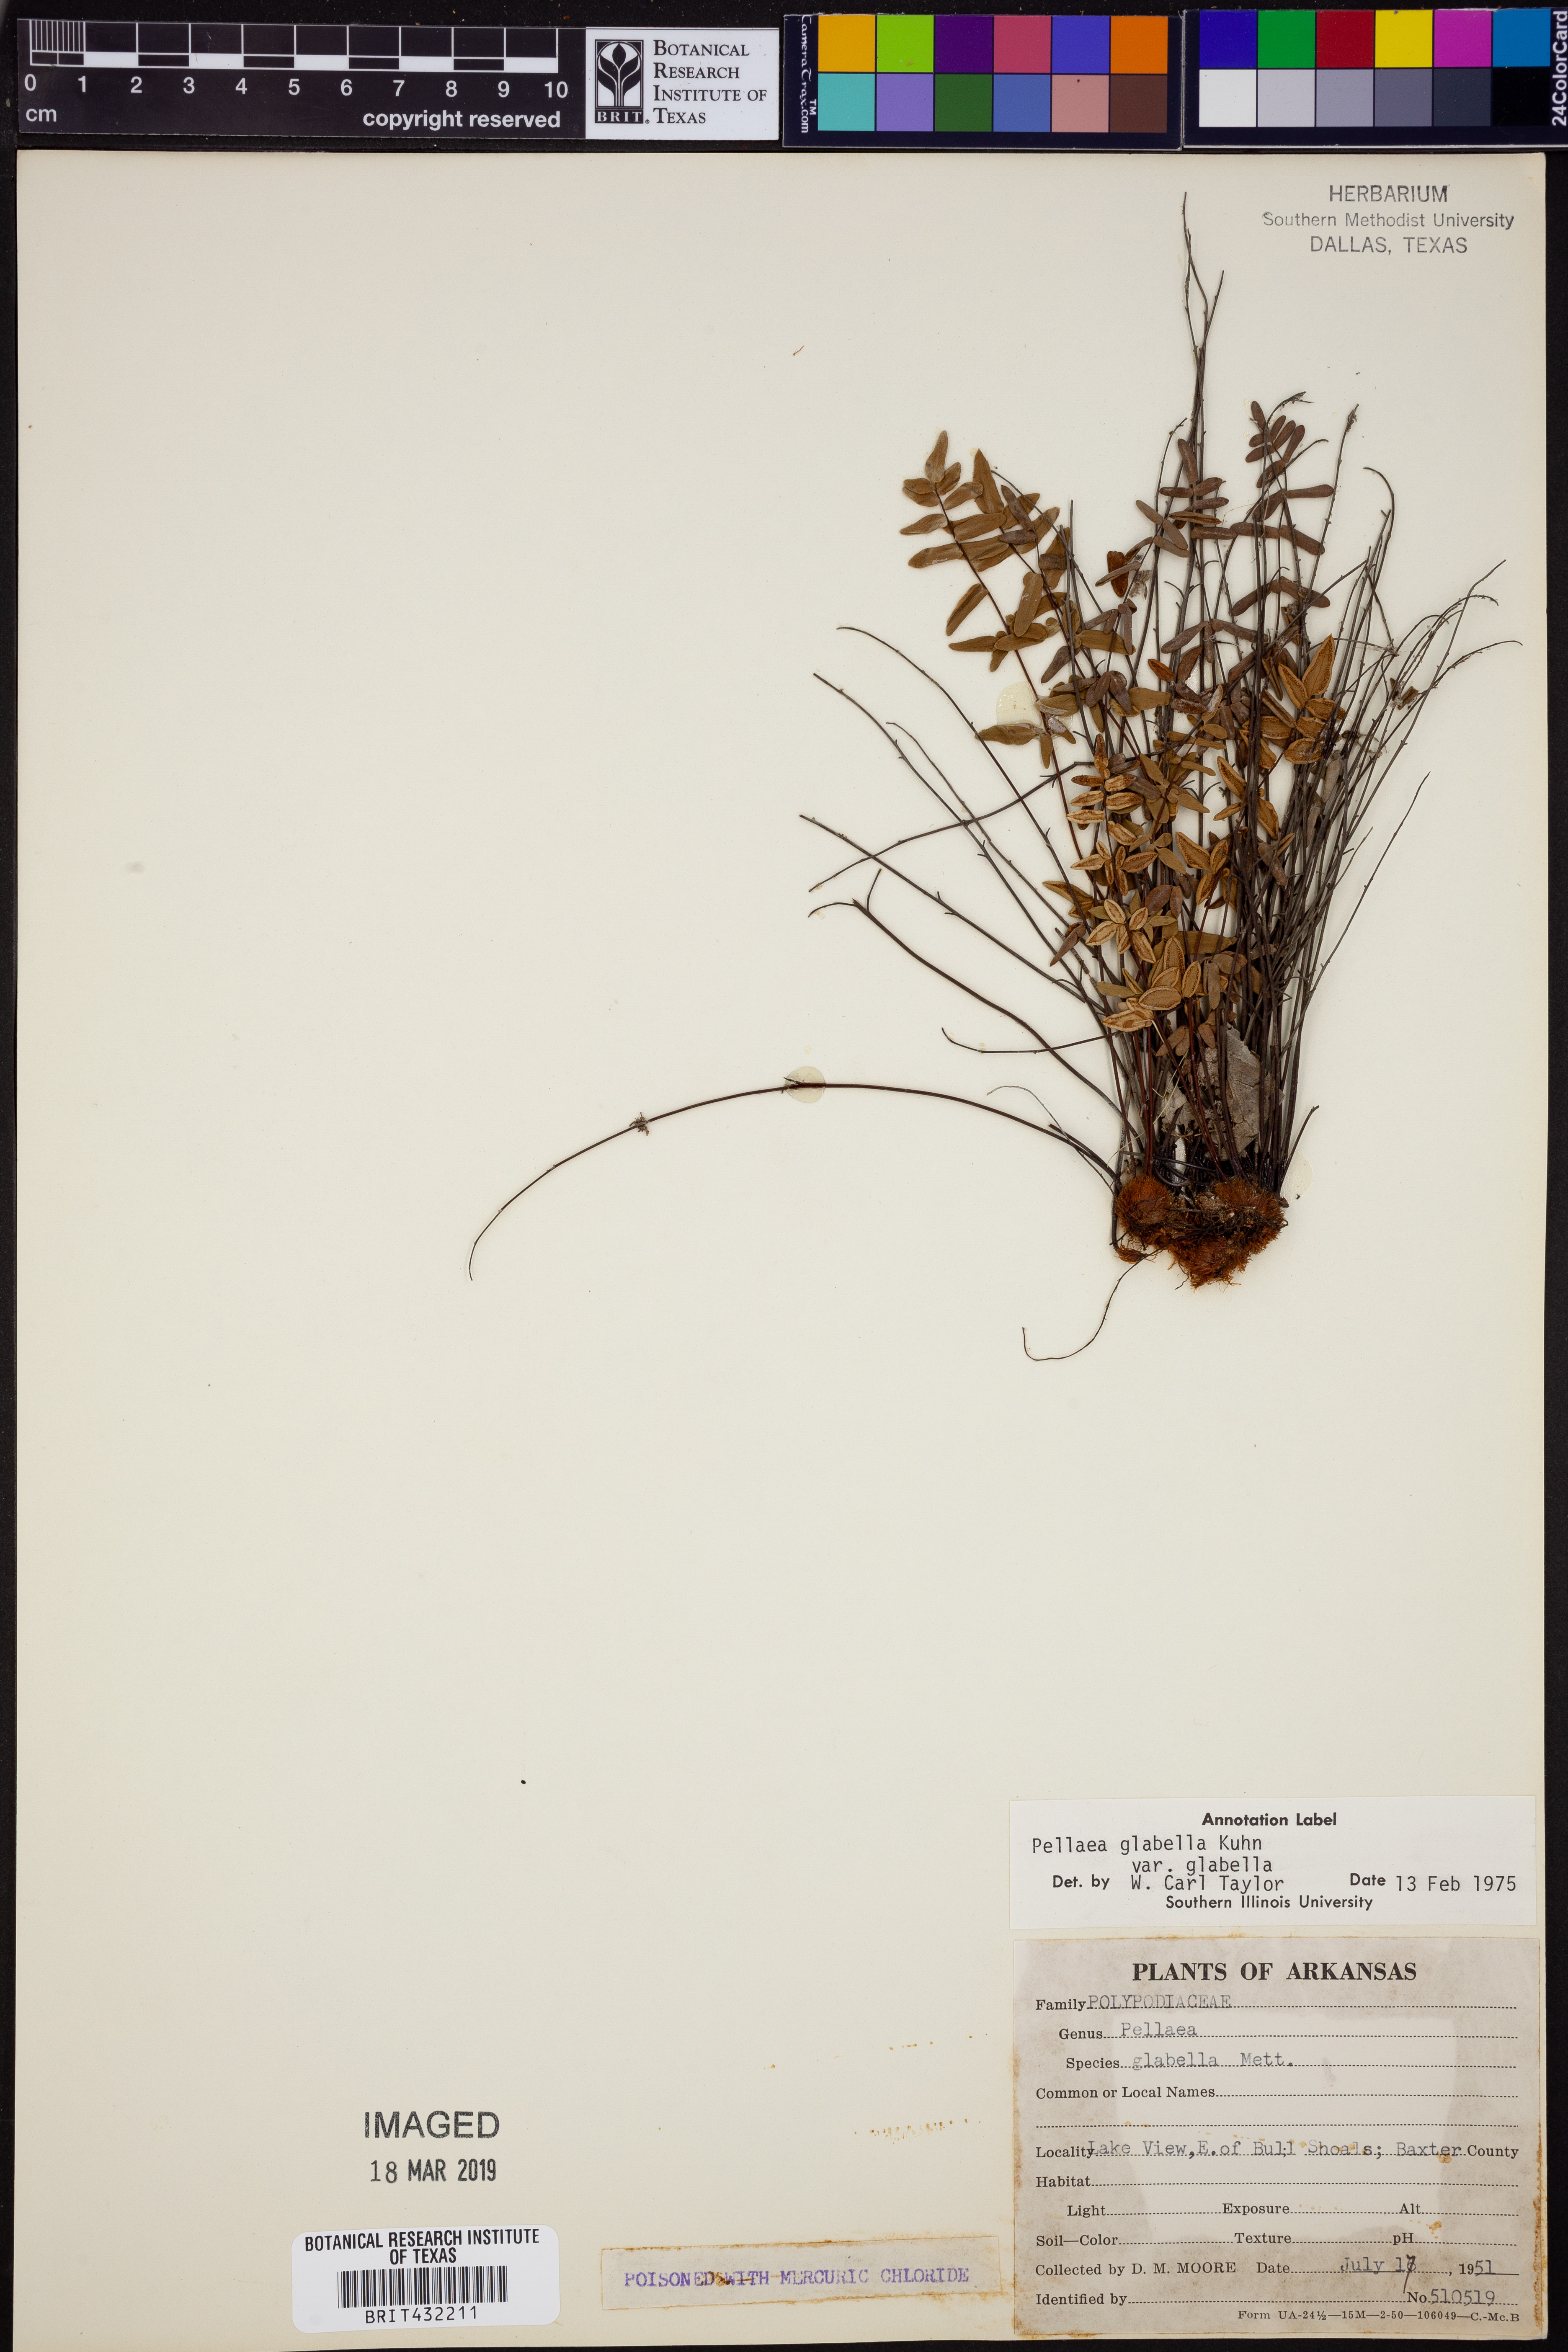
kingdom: Plantae
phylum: Tracheophyta
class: Polypodiopsida
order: Polypodiales
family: Pteridaceae
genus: Pellaea
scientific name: Pellaea glabella
